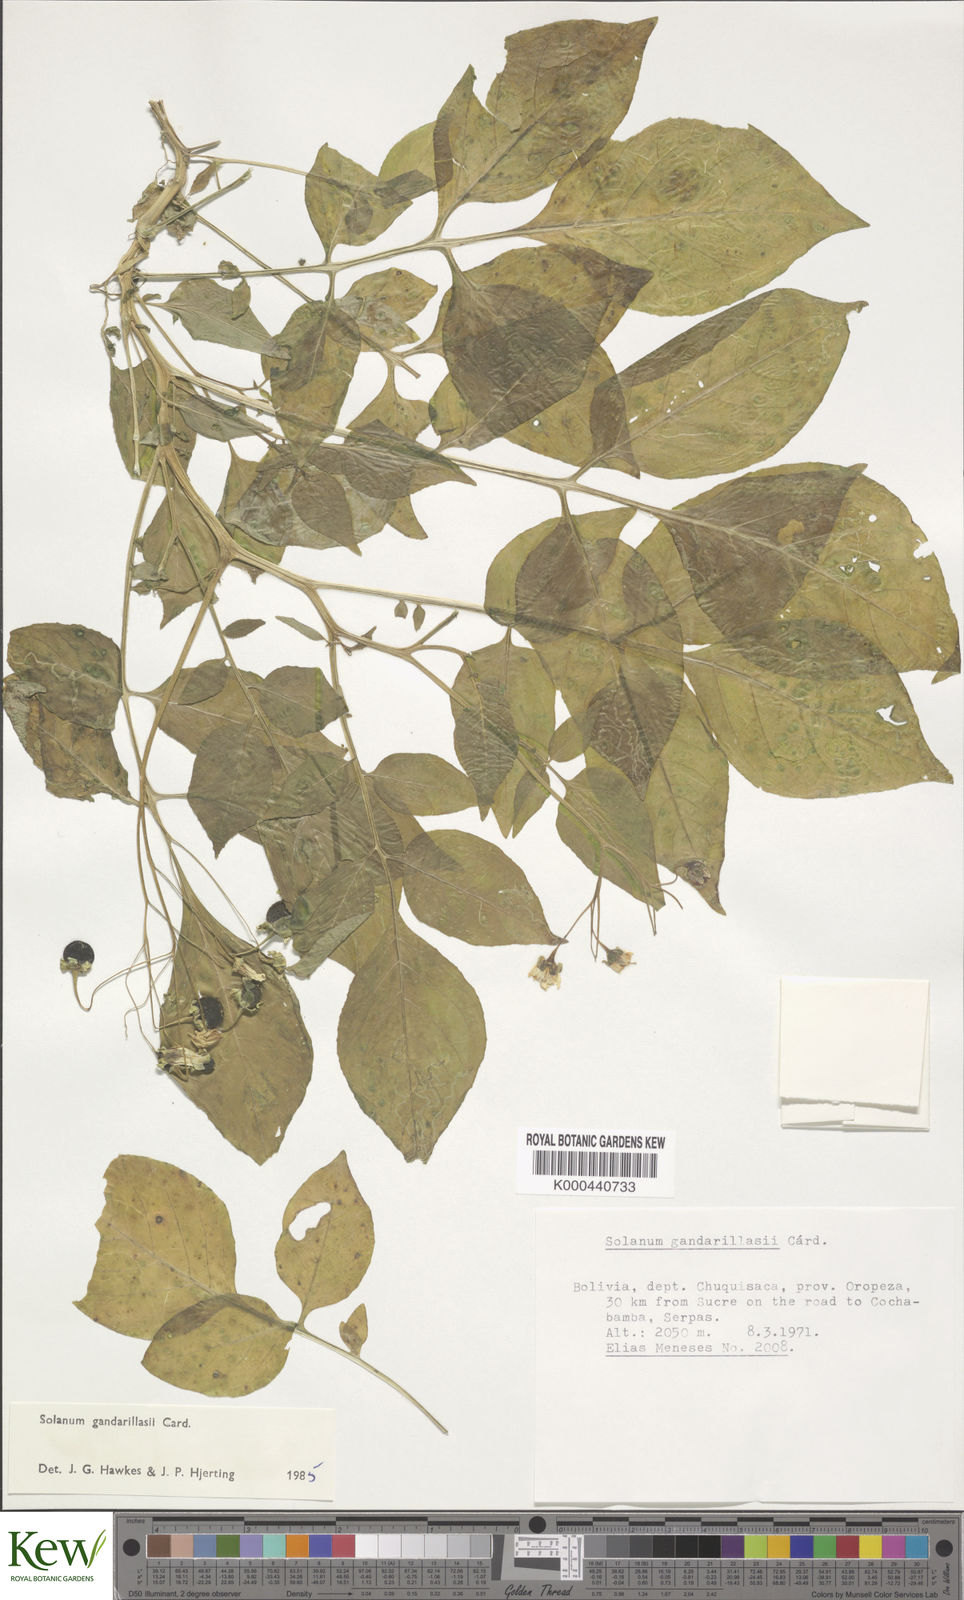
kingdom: Plantae
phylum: Tracheophyta
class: Magnoliopsida
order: Solanales
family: Solanaceae
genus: Solanum
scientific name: Solanum
